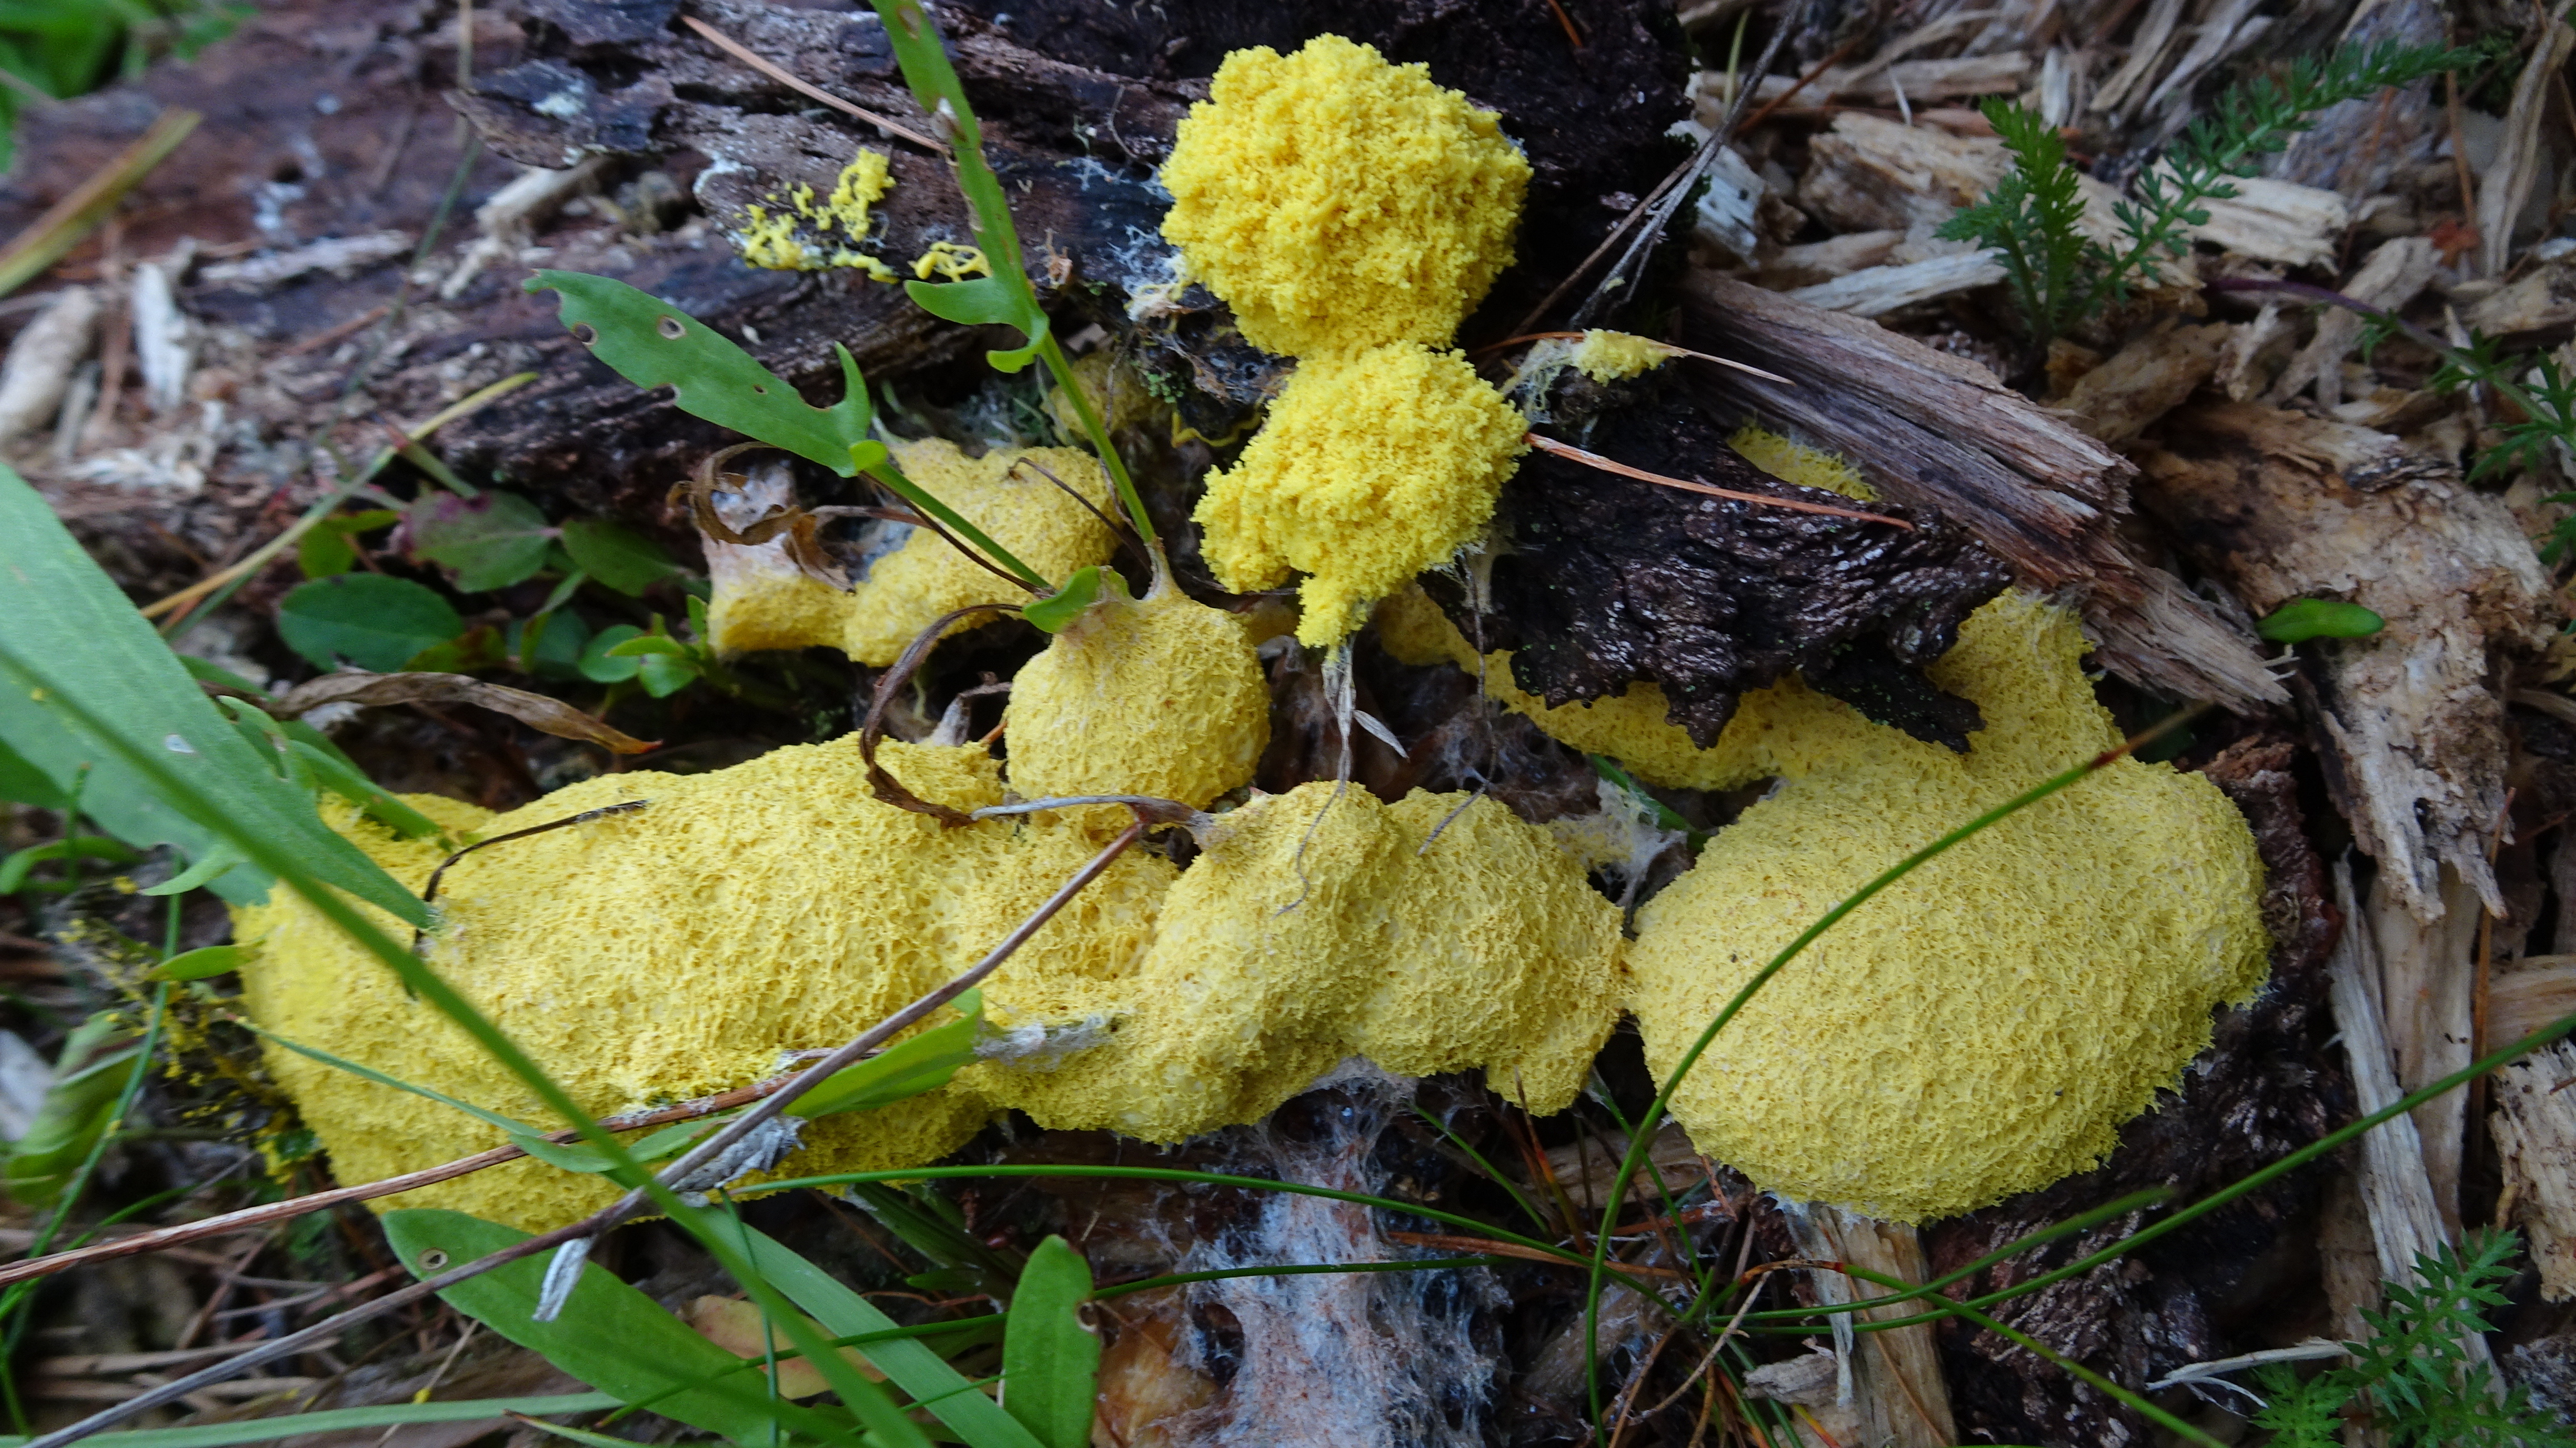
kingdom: Protozoa
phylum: Mycetozoa
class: Myxomycetes
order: Physarales
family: Physaraceae
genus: Fuligo
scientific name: Fuligo septica
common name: Dog vomit slime mold
